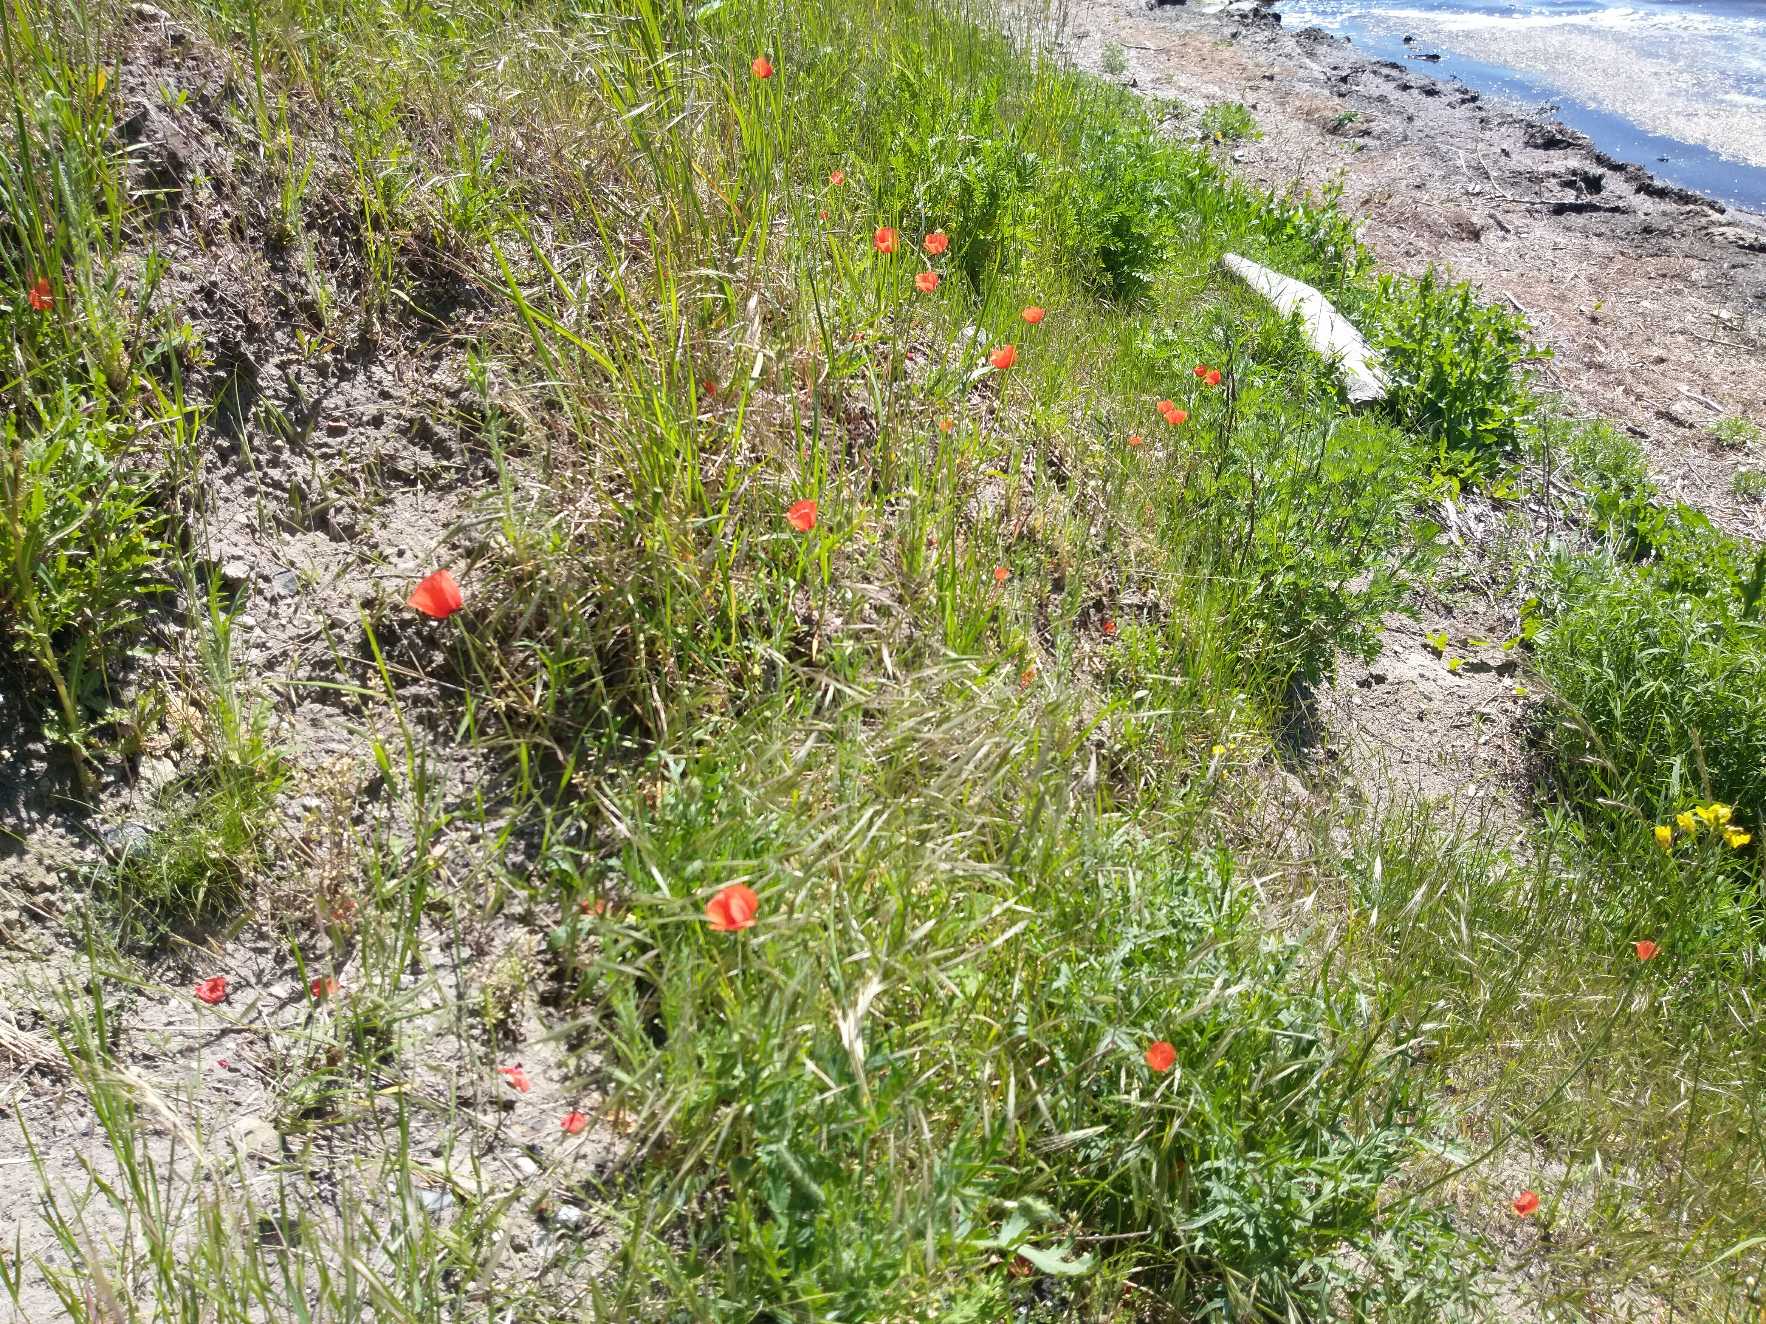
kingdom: Plantae
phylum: Tracheophyta
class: Magnoliopsida
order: Ranunculales
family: Papaveraceae
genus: Papaver
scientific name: Papaver dubium
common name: Gærde-valmue
